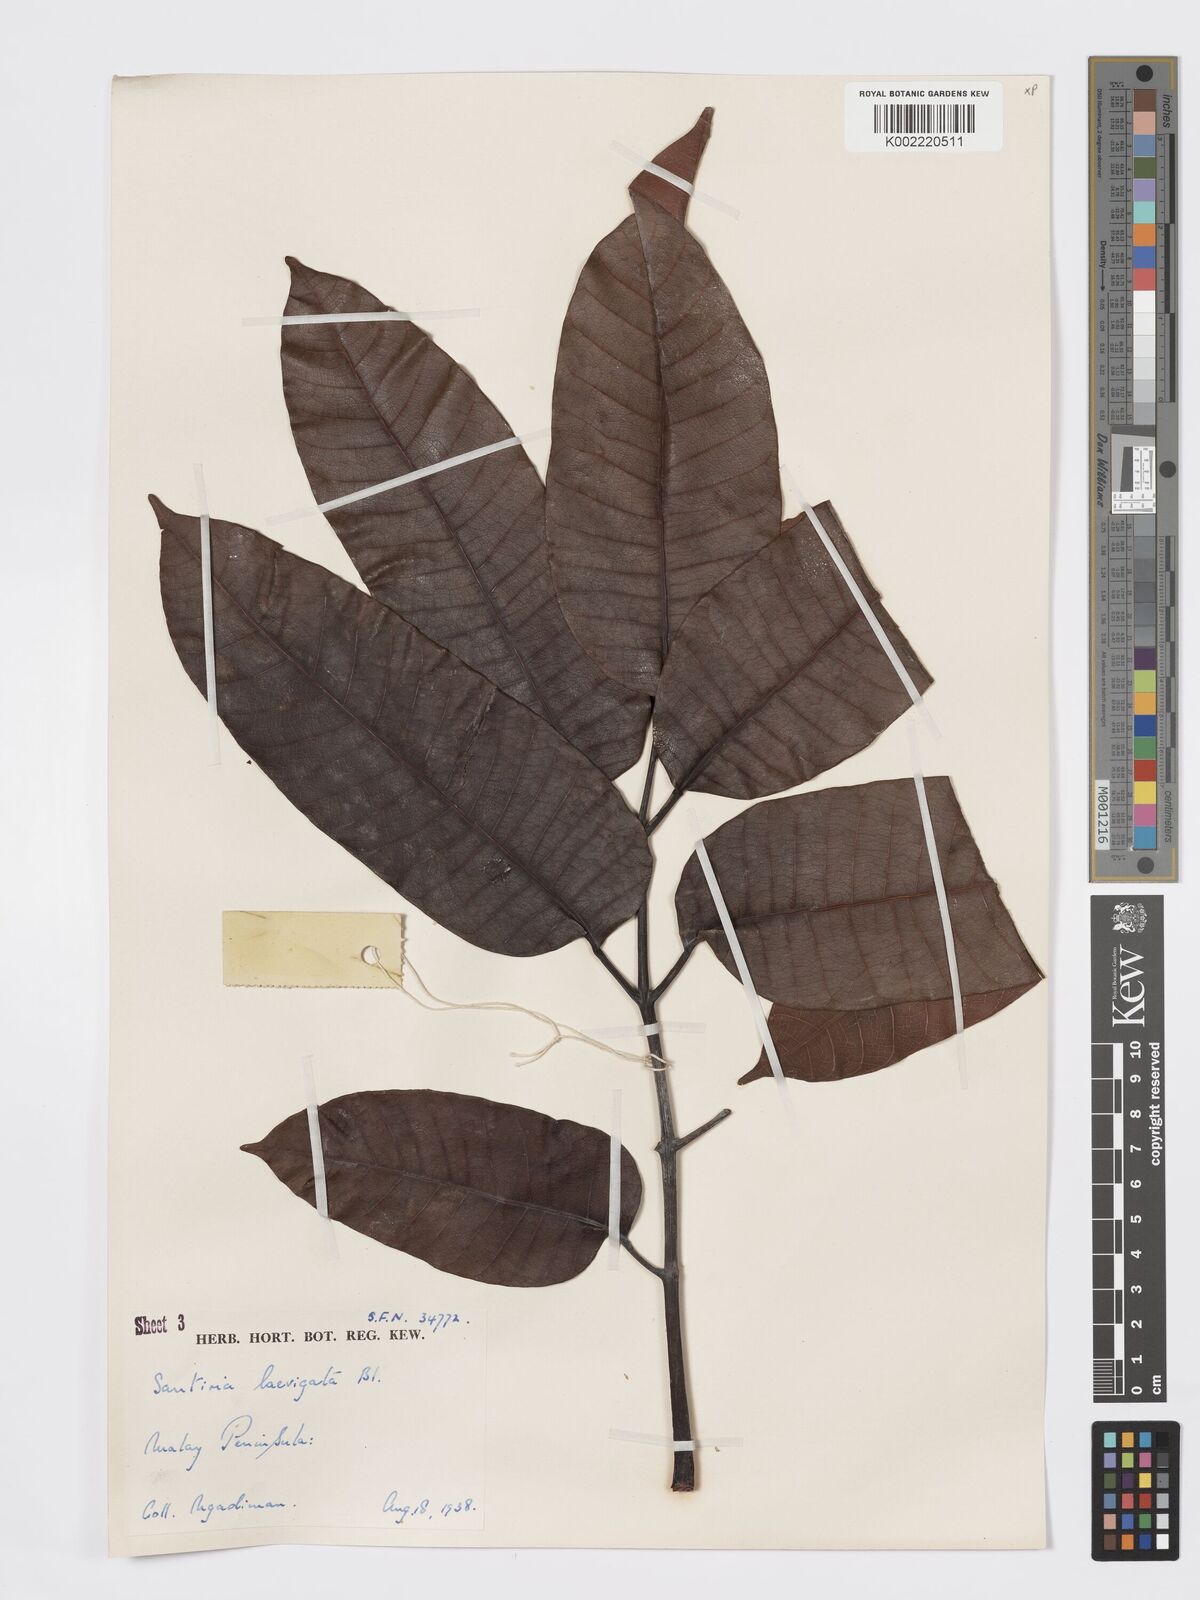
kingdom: Plantae
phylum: Tracheophyta
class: Magnoliopsida
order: Sapindales
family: Burseraceae
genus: Santiria
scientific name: Santiria laevigata
